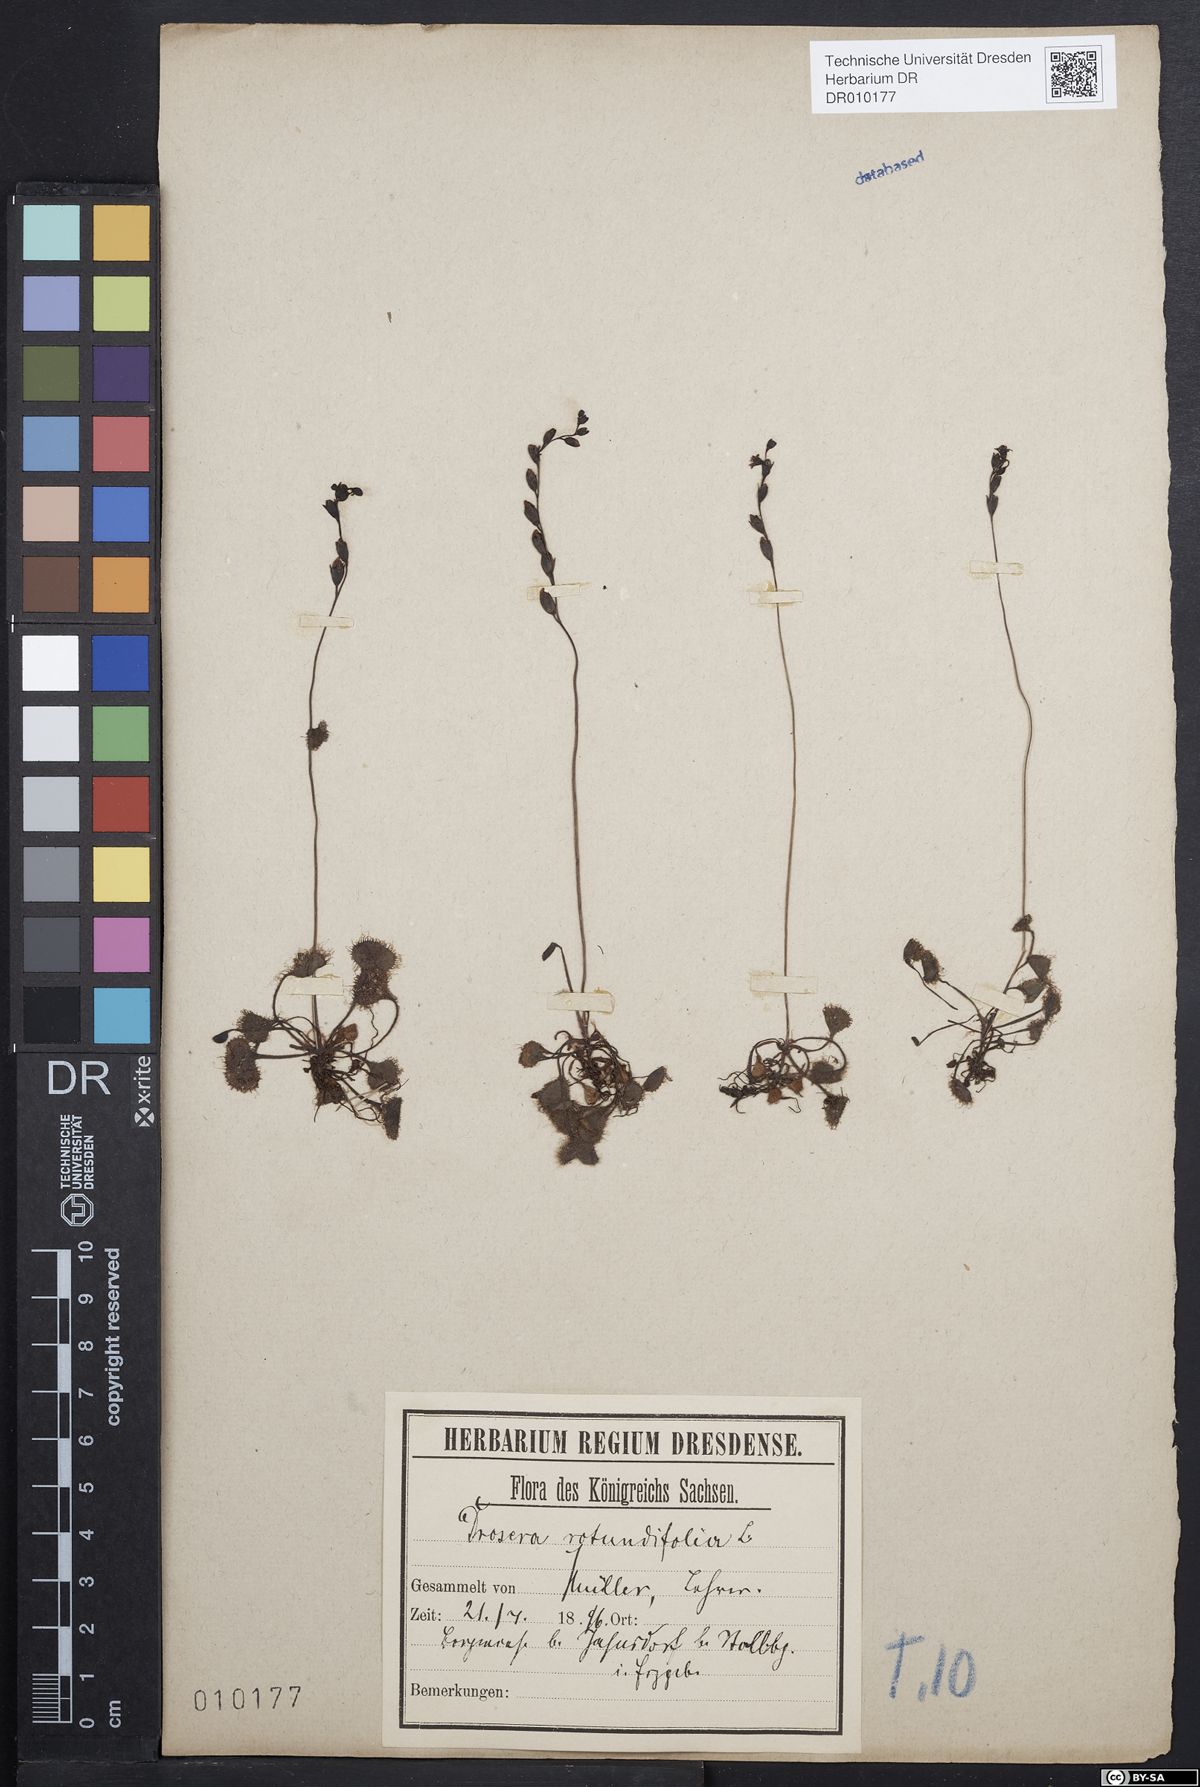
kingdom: Plantae
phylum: Tracheophyta
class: Magnoliopsida
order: Caryophyllales
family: Droseraceae
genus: Drosera
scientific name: Drosera rotundifolia
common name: Round-leaved sundew
